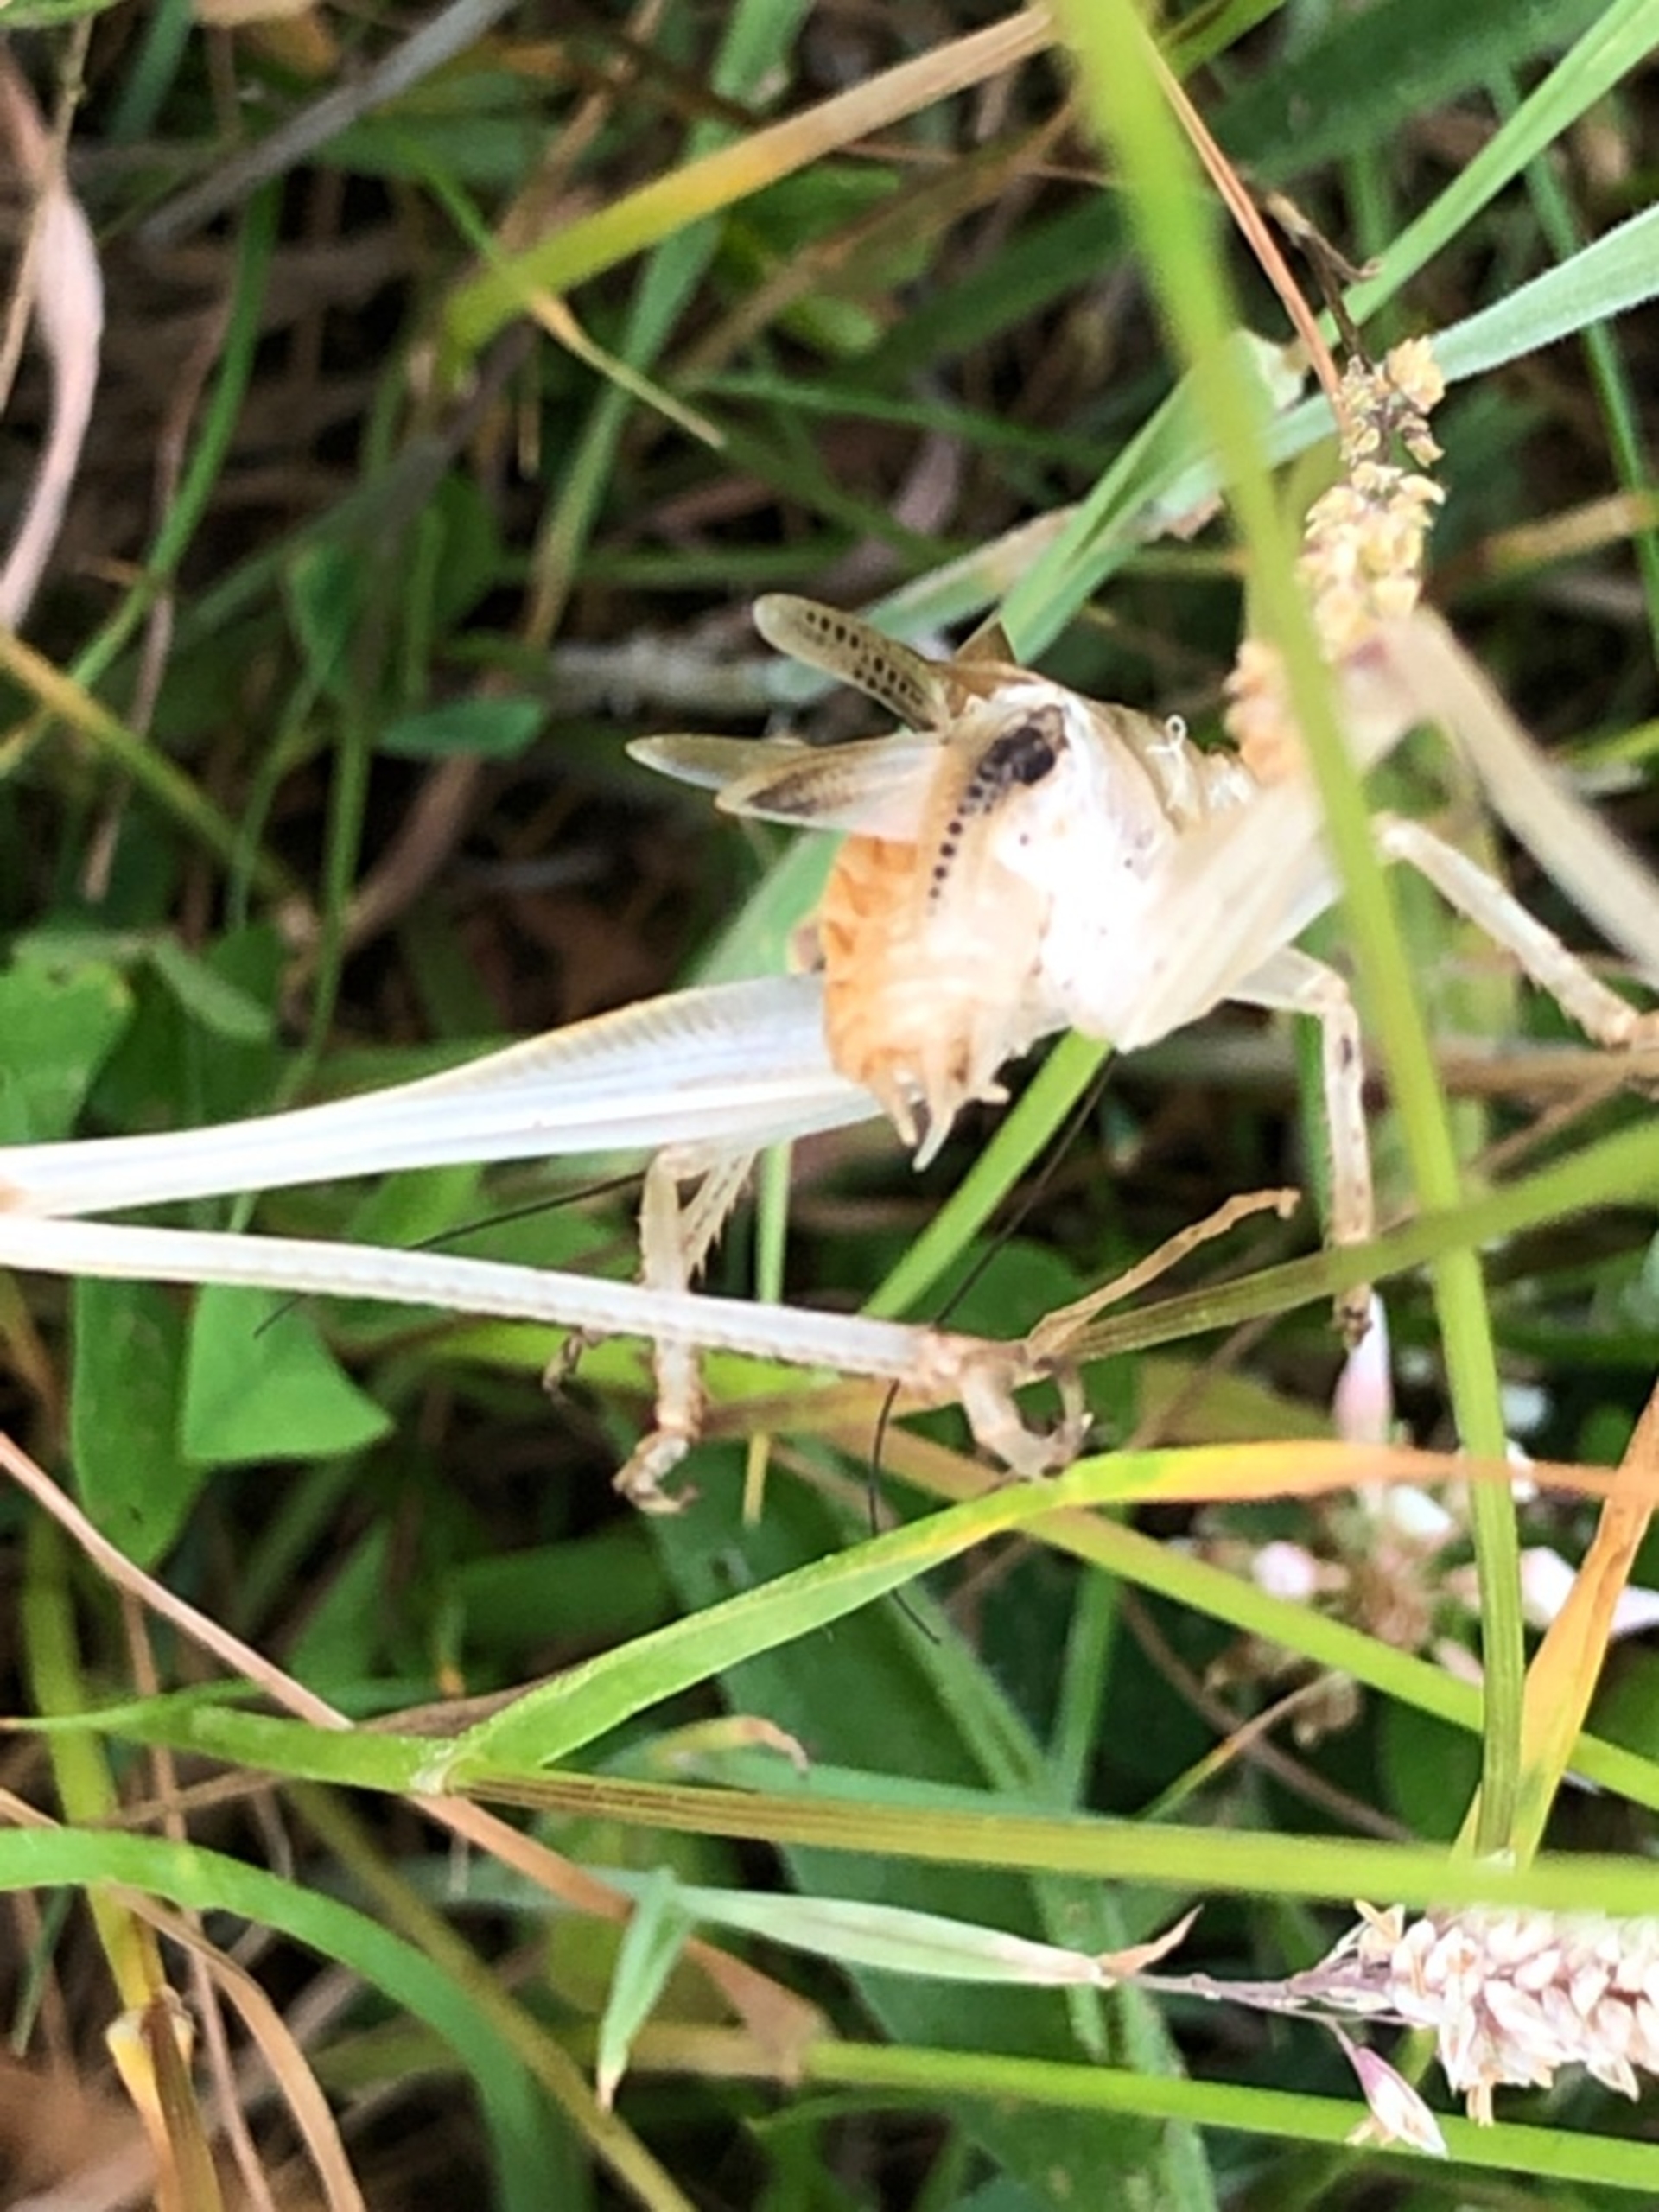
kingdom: Animalia
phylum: Arthropoda
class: Insecta
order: Orthoptera
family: Tettigoniidae
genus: Decticus
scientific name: Decticus verrucivorus
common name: Vortebider
